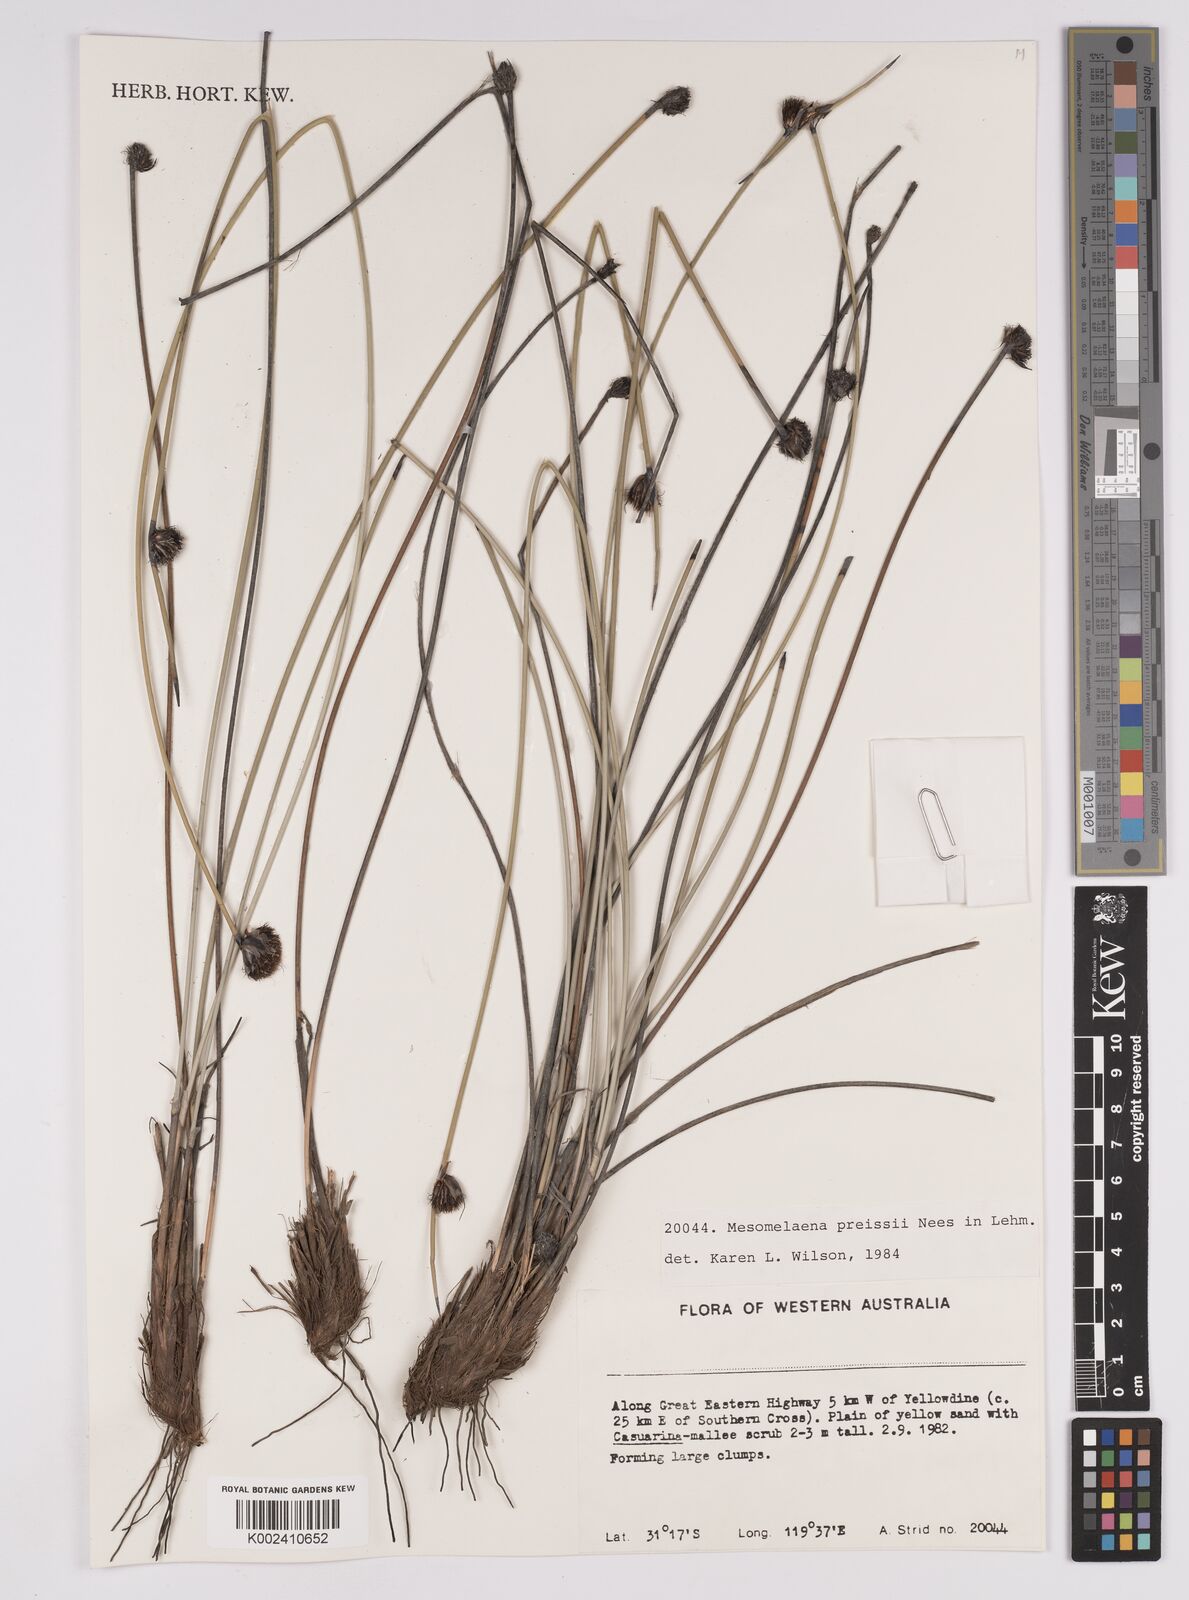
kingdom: Plantae
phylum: Tracheophyta
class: Liliopsida
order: Poales
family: Cyperaceae
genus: Mesomelaena
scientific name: Mesomelaena preissii
